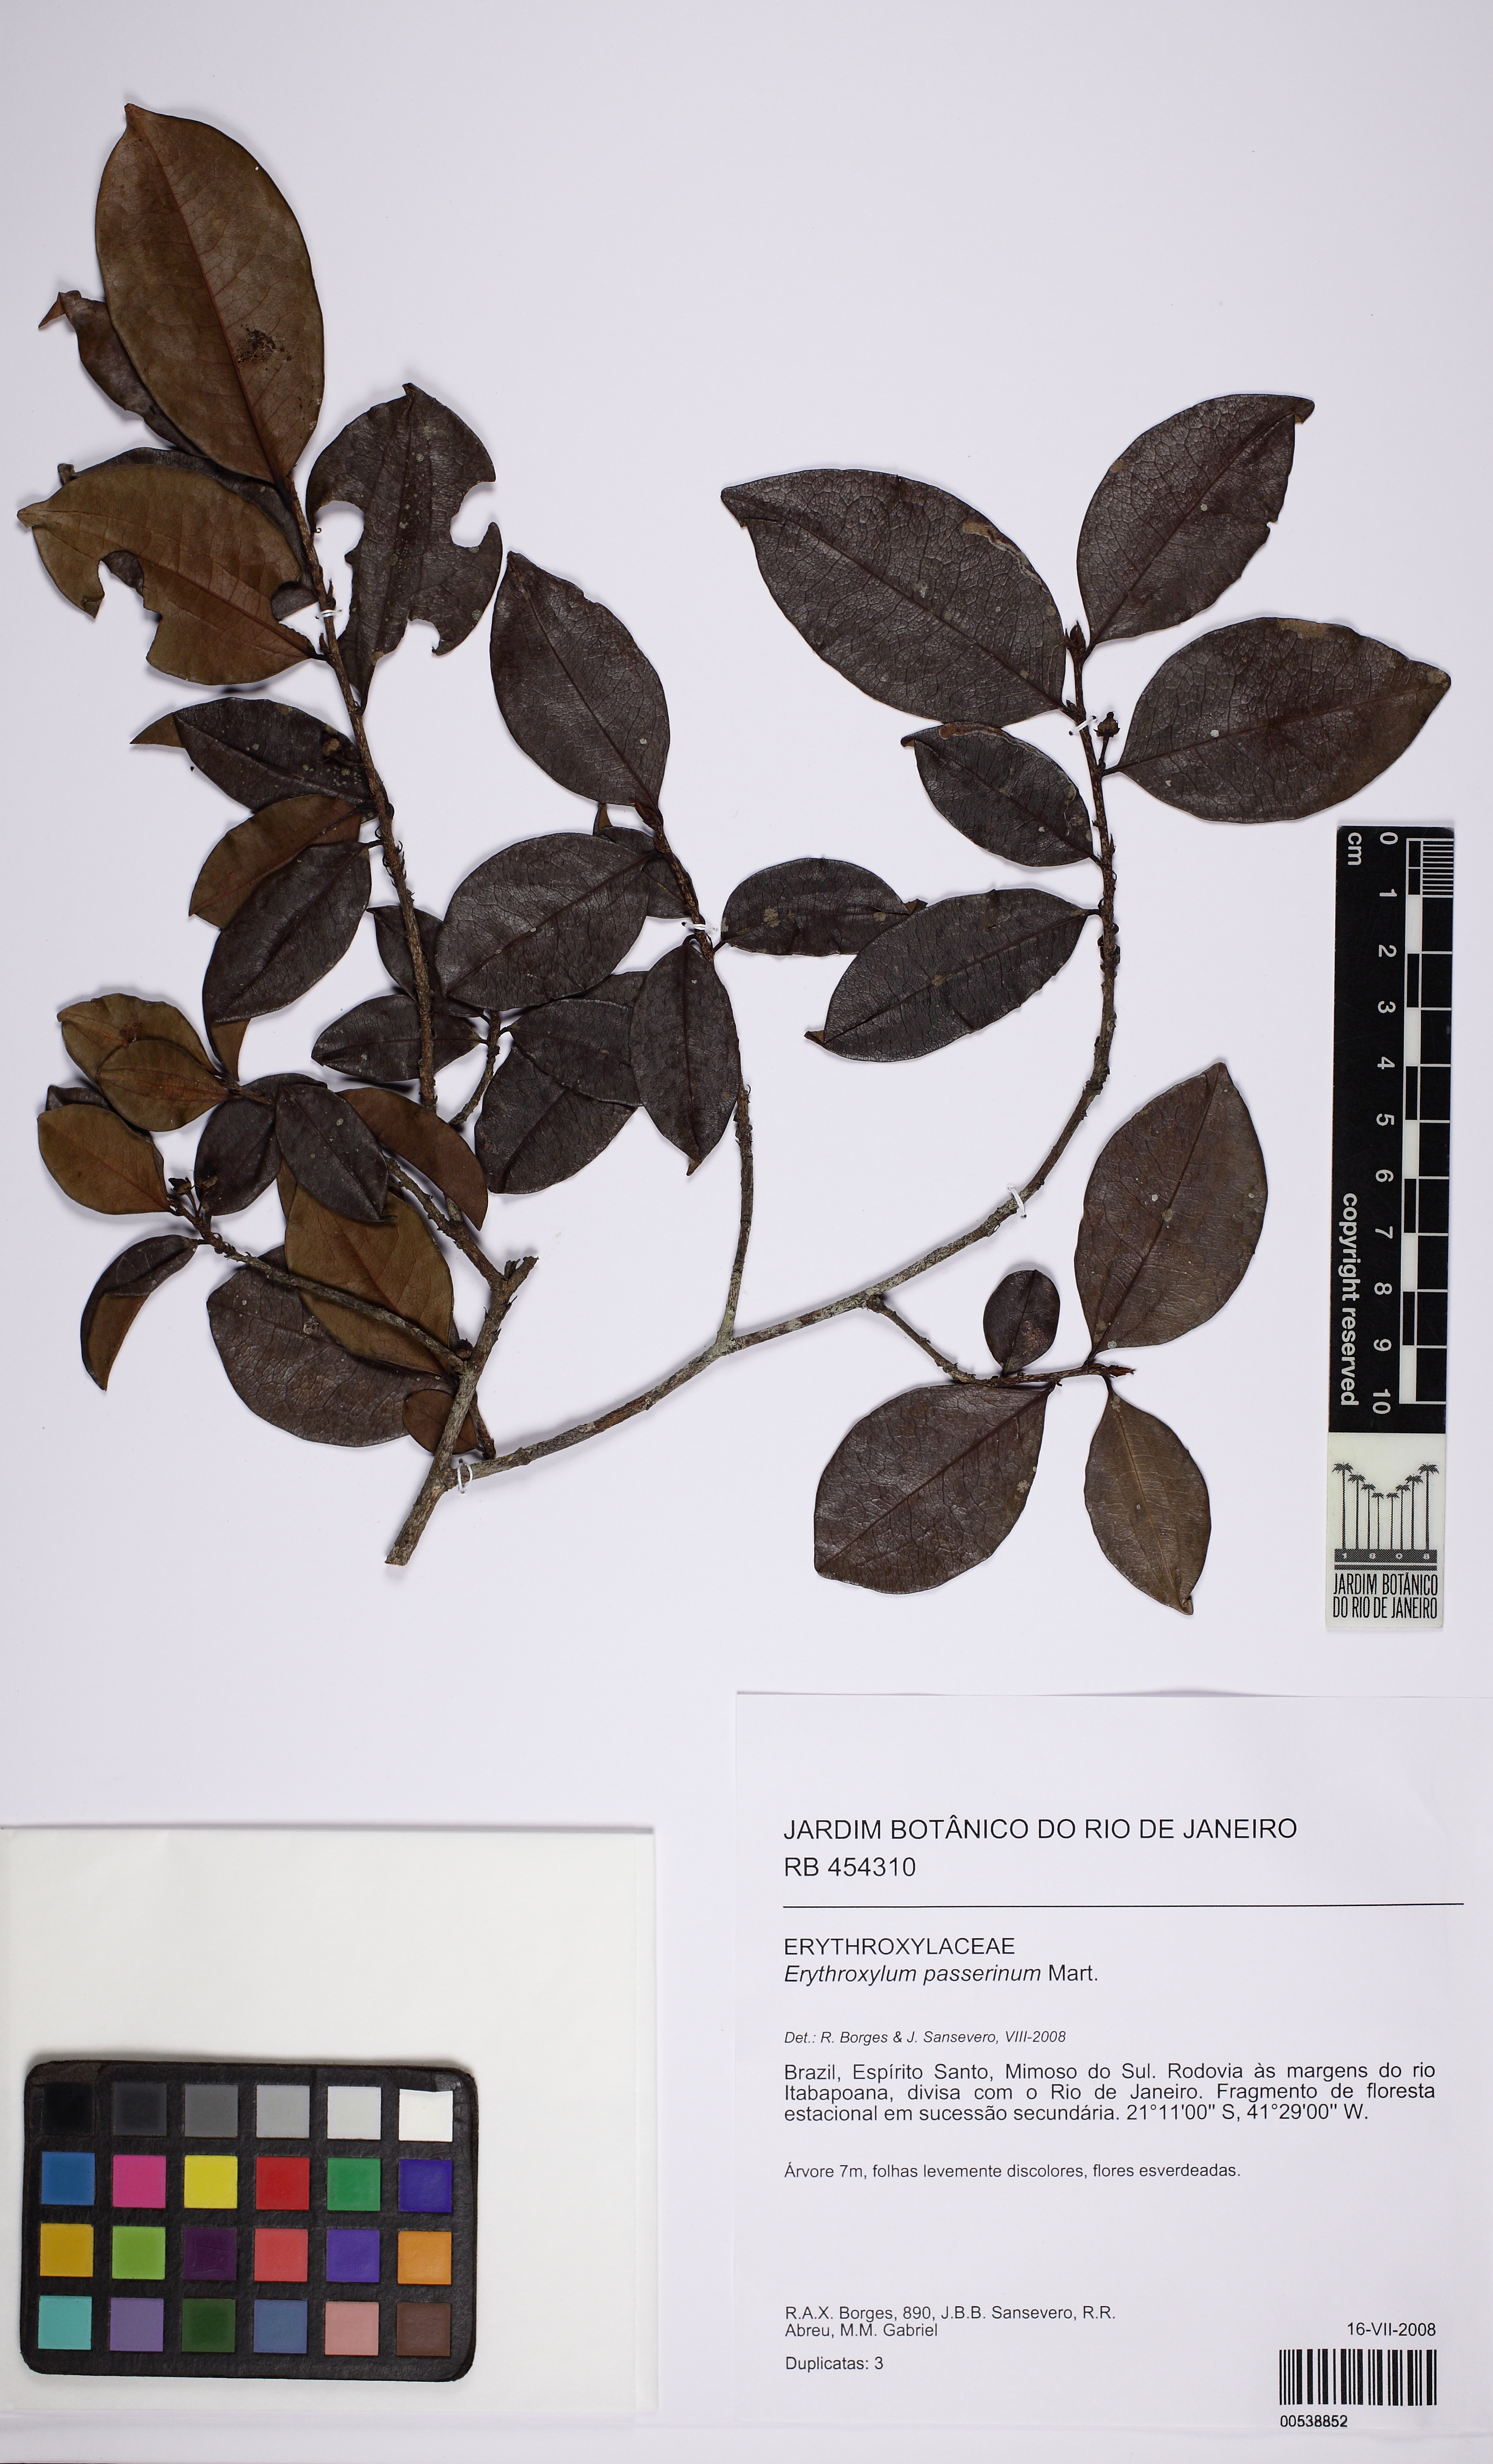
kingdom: Plantae
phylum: Tracheophyta
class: Magnoliopsida
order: Malpighiales
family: Erythroxylaceae
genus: Erythroxylum
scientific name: Erythroxylum passerinum
